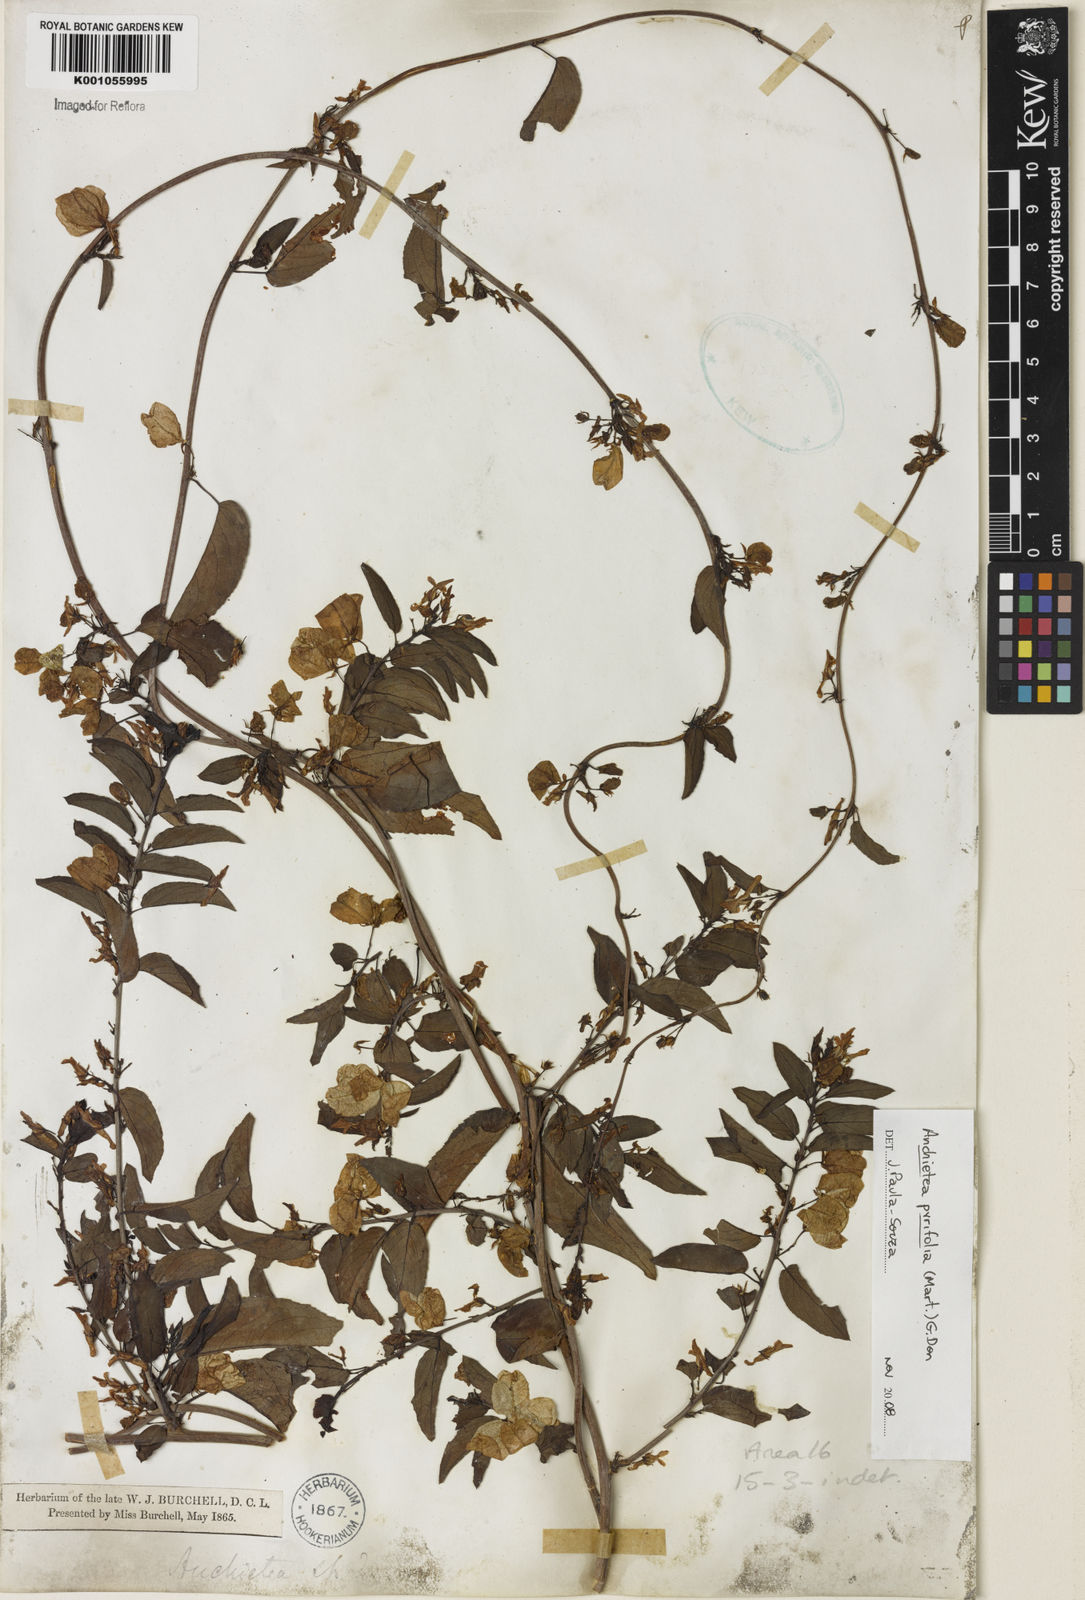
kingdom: Plantae
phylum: Tracheophyta
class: Magnoliopsida
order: Malpighiales
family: Violaceae
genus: Anchietea
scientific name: Anchietea pyrifolia
